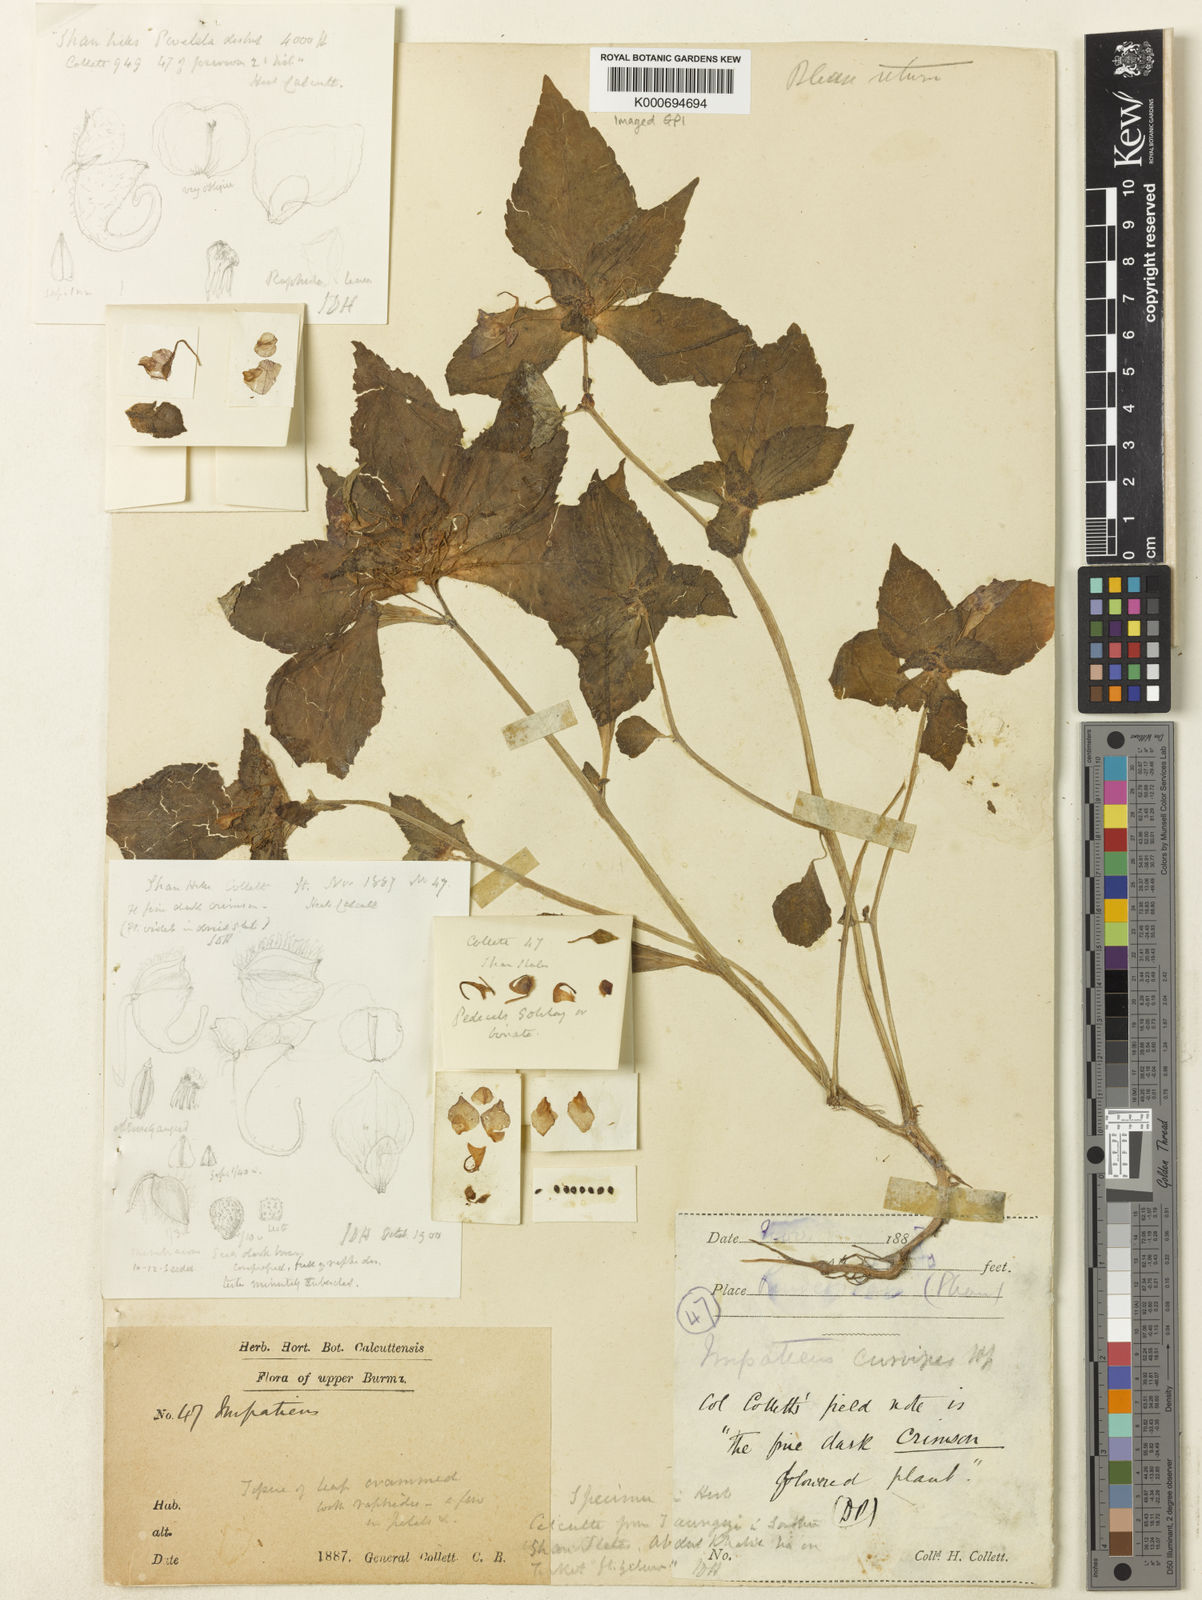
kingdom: Plantae
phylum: Tracheophyta
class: Magnoliopsida
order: Ericales
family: Balsaminaceae
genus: Impatiens
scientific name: Impatiens curvipes
